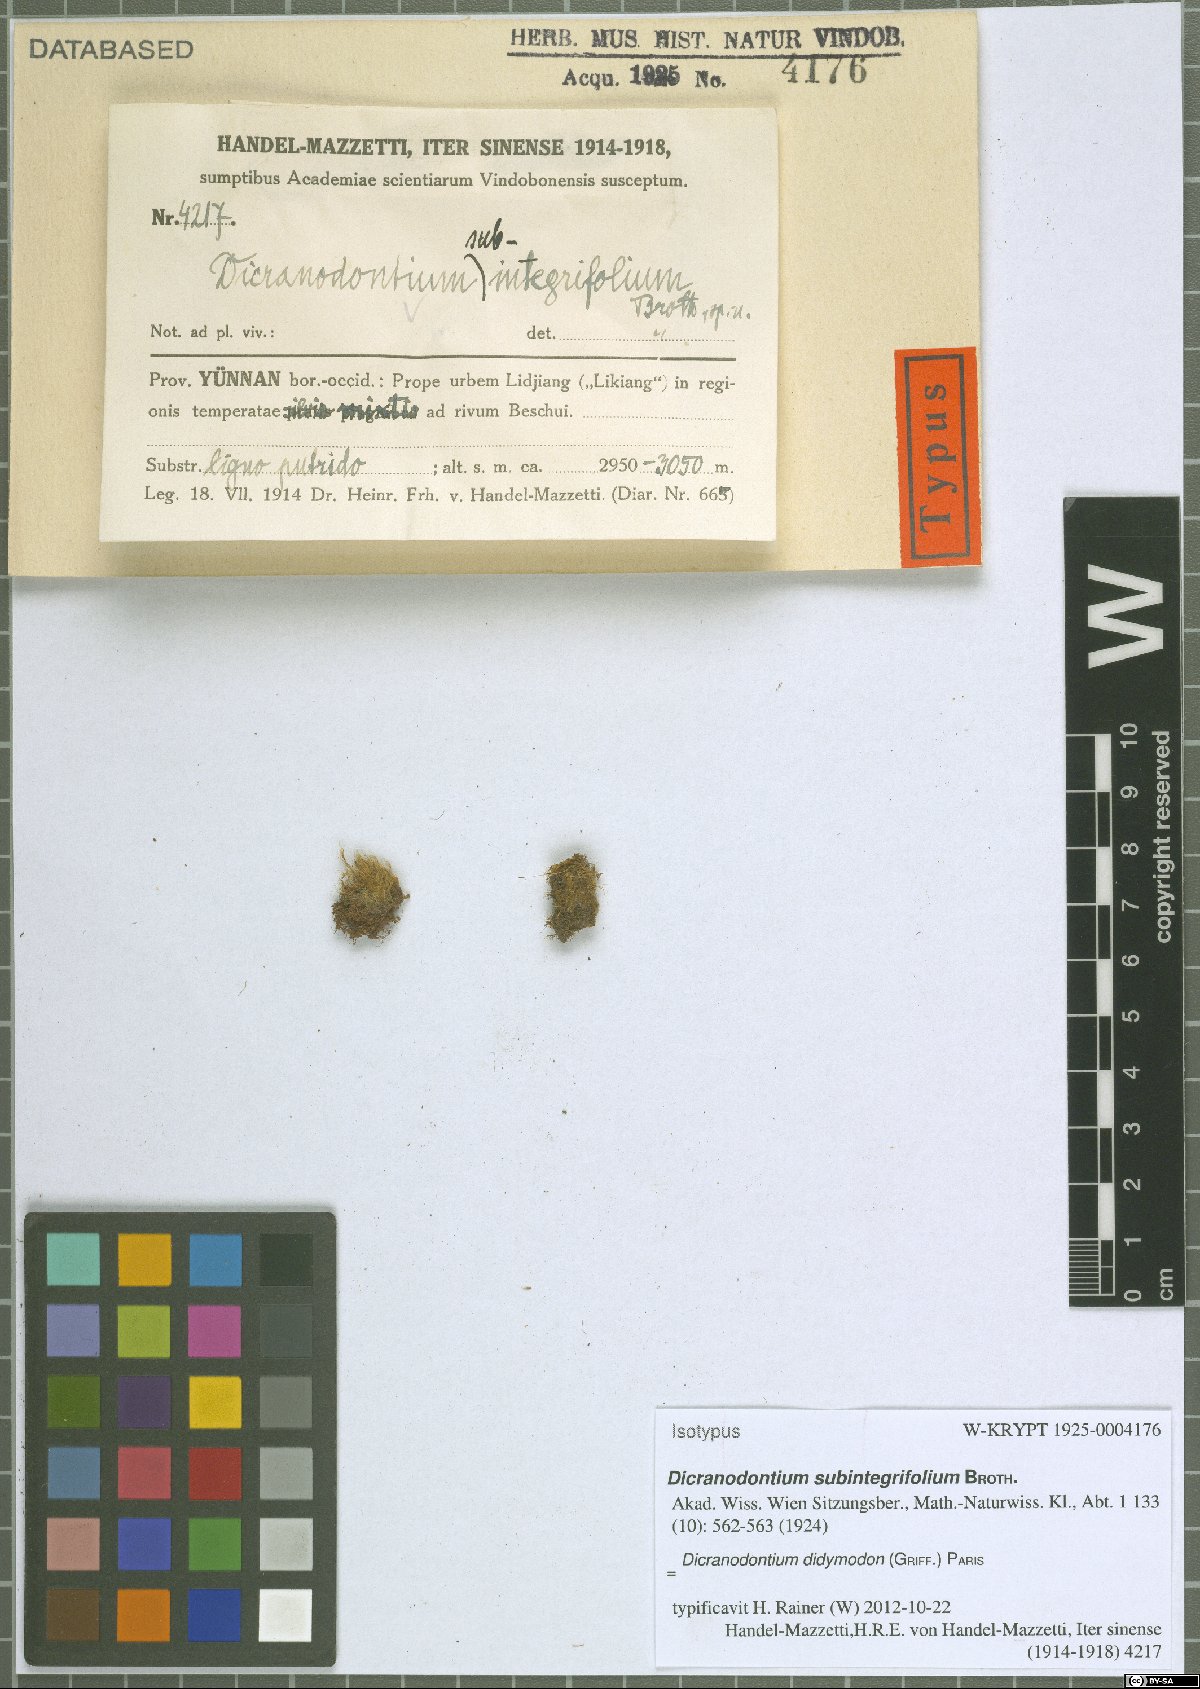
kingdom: Plantae
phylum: Bryophyta
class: Bryopsida
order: Dicranales
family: Leucobryaceae
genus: Dicranodontium
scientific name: Dicranodontium didictyon
